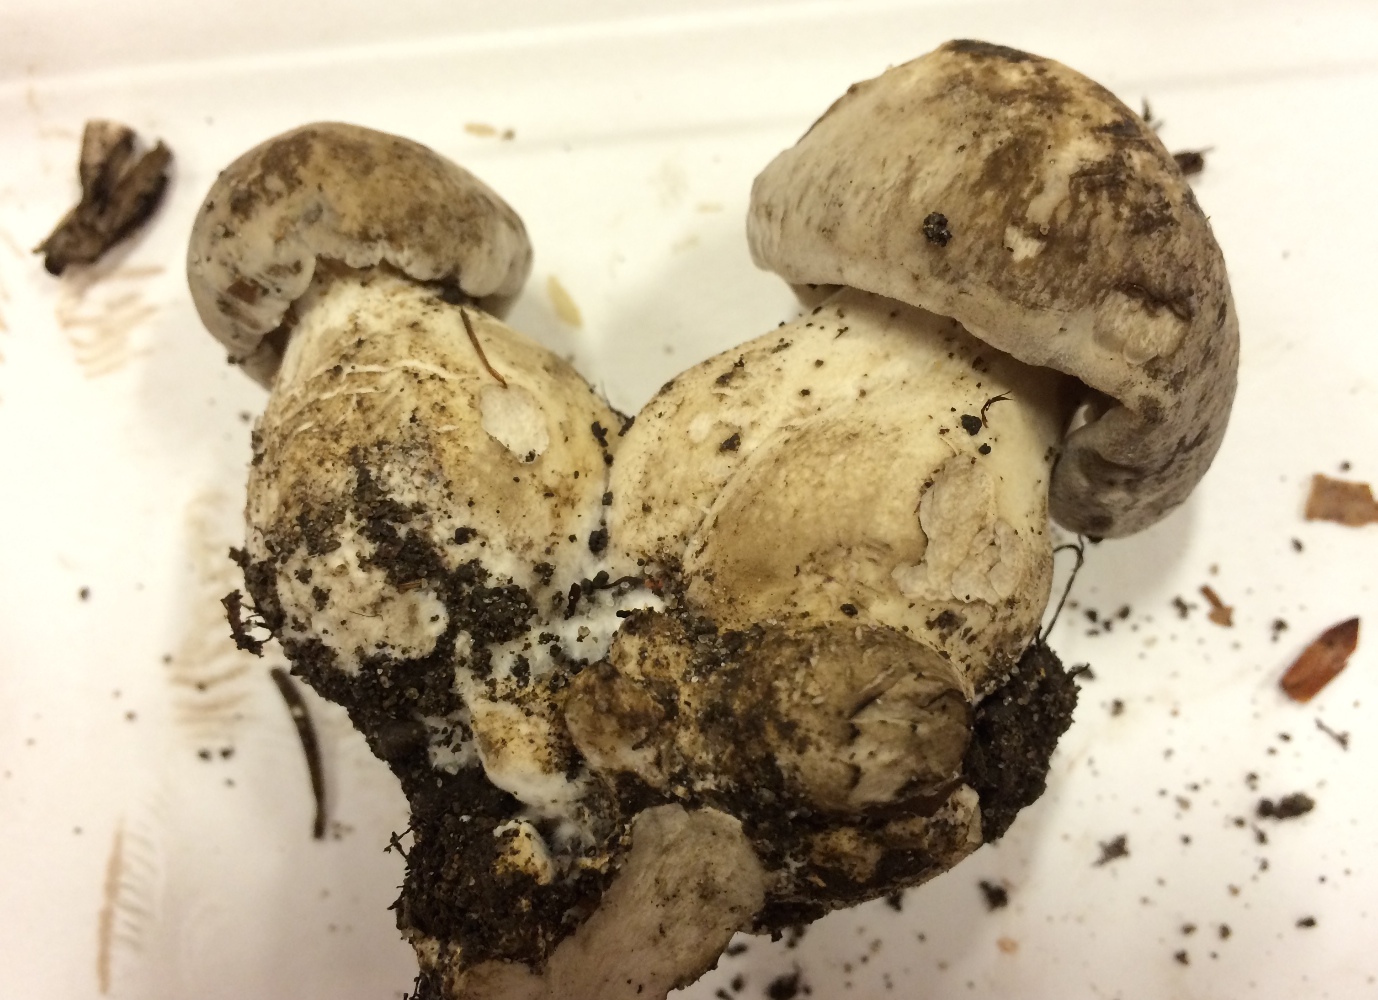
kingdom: Fungi
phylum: Basidiomycota
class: Agaricomycetes
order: Agaricales
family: Lyophyllaceae
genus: Lyophyllum
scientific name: Lyophyllum
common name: gråblad
